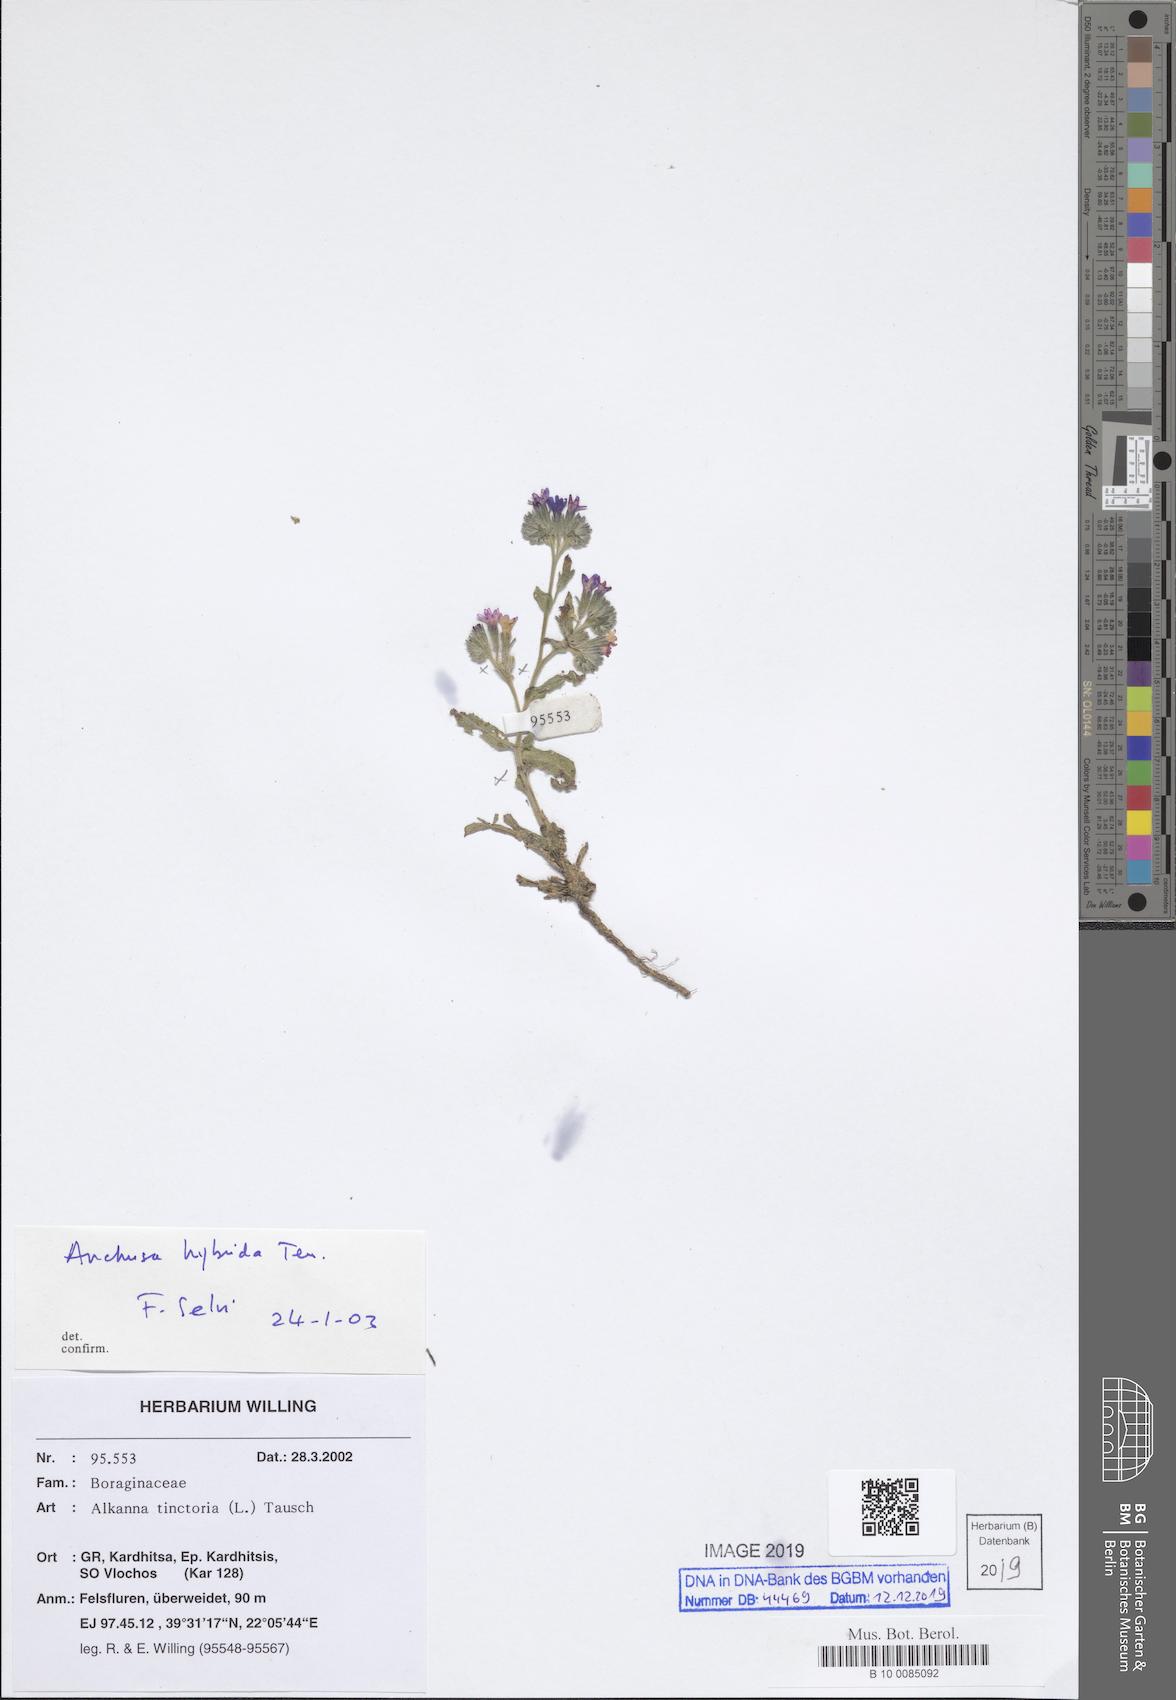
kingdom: Plantae
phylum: Tracheophyta
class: Magnoliopsida
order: Boraginales
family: Boraginaceae
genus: Anchusa
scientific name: Anchusa hybrida
